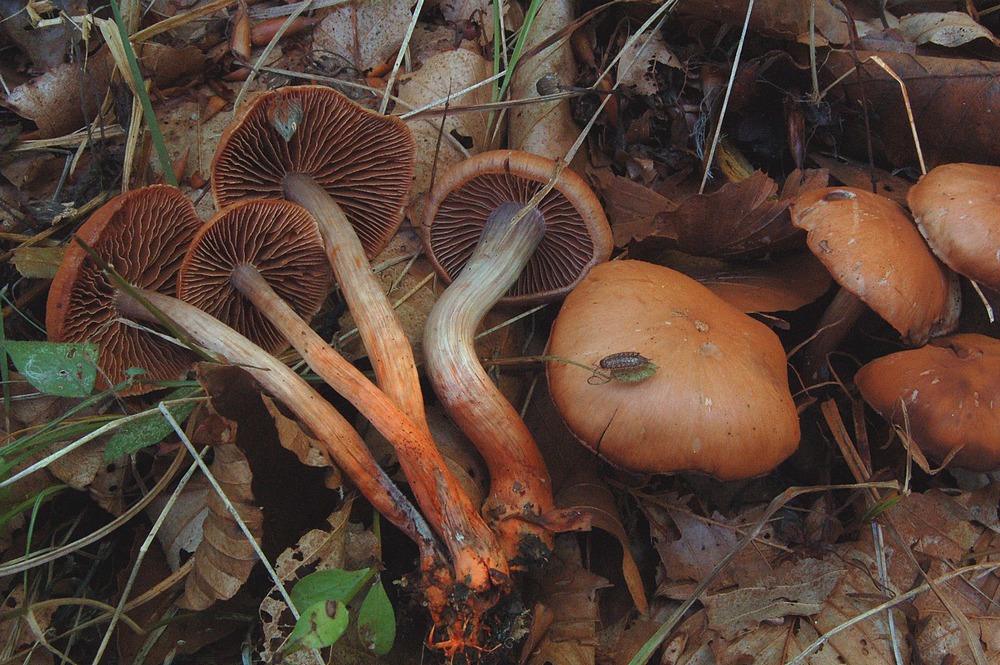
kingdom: Fungi
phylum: Basidiomycota
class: Agaricomycetes
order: Agaricales
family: Cortinariaceae
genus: Cortinarius
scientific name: Cortinarius bulliardii
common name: Bulliards slørhat
